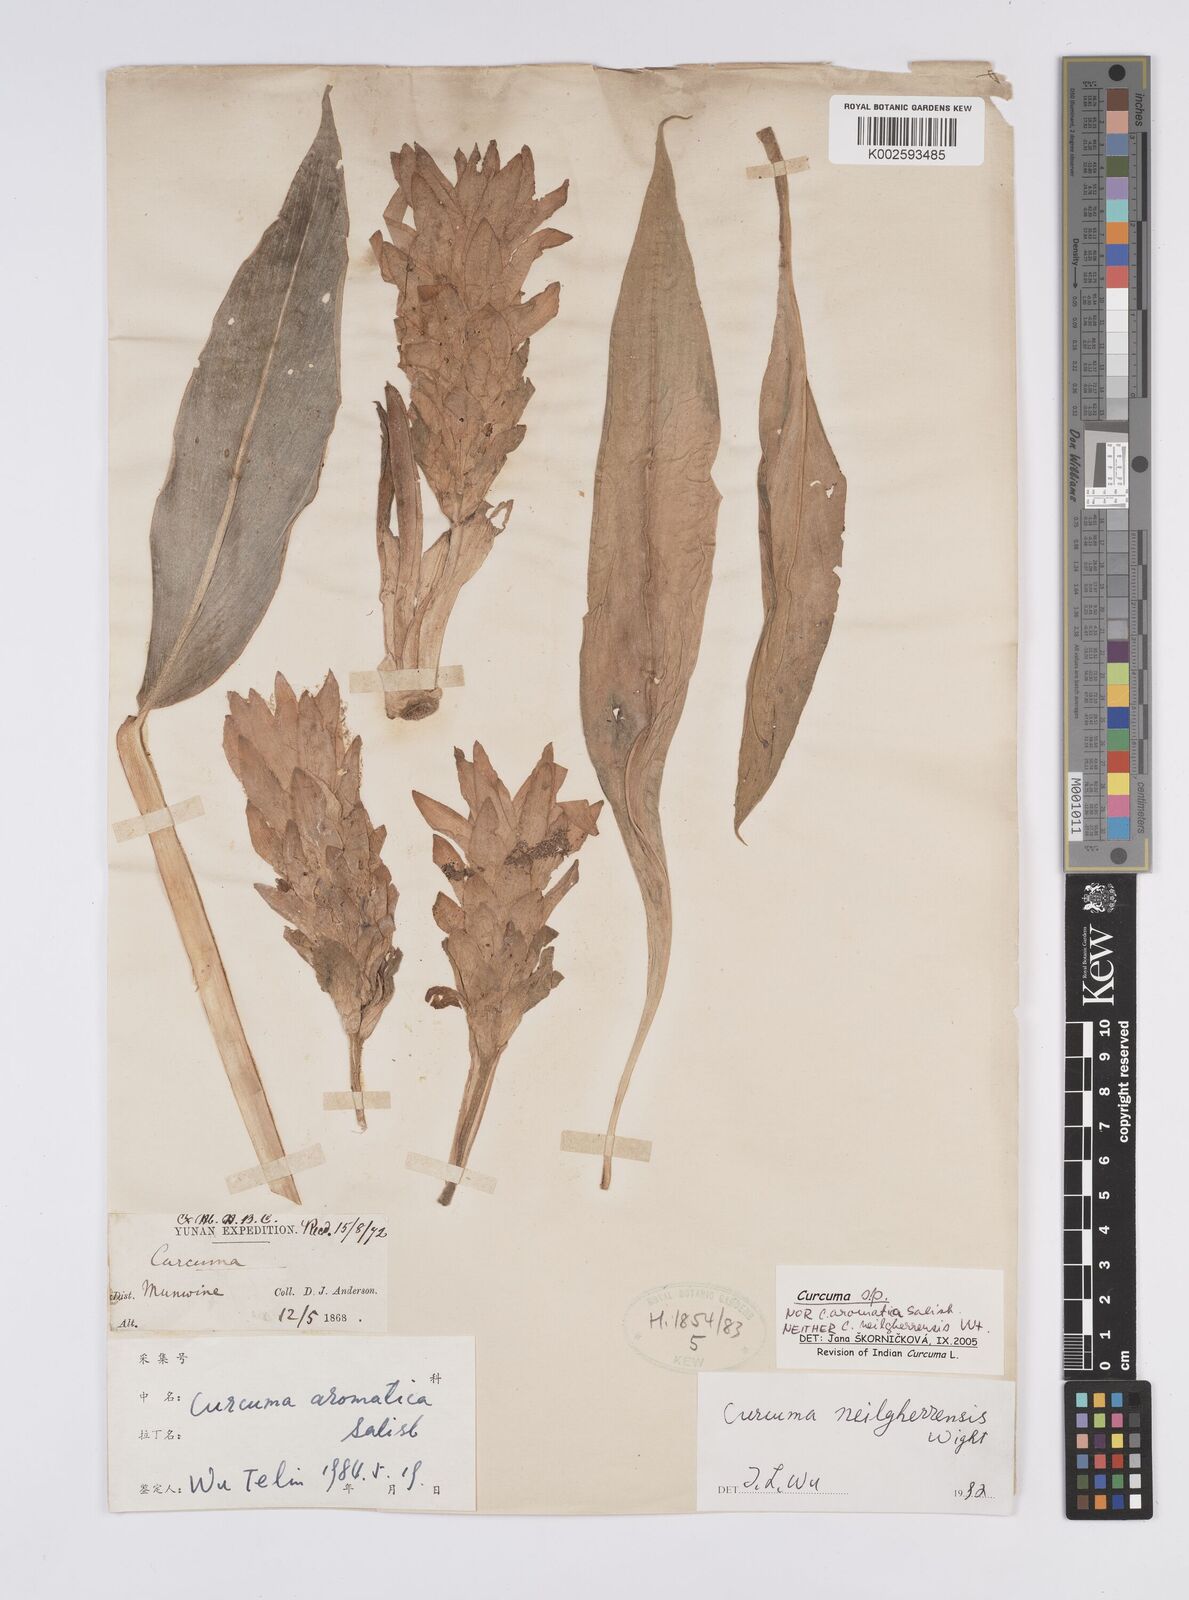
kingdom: Plantae
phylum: Tracheophyta
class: Liliopsida
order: Zingiberales
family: Zingiberaceae
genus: Curcuma
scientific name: Curcuma
